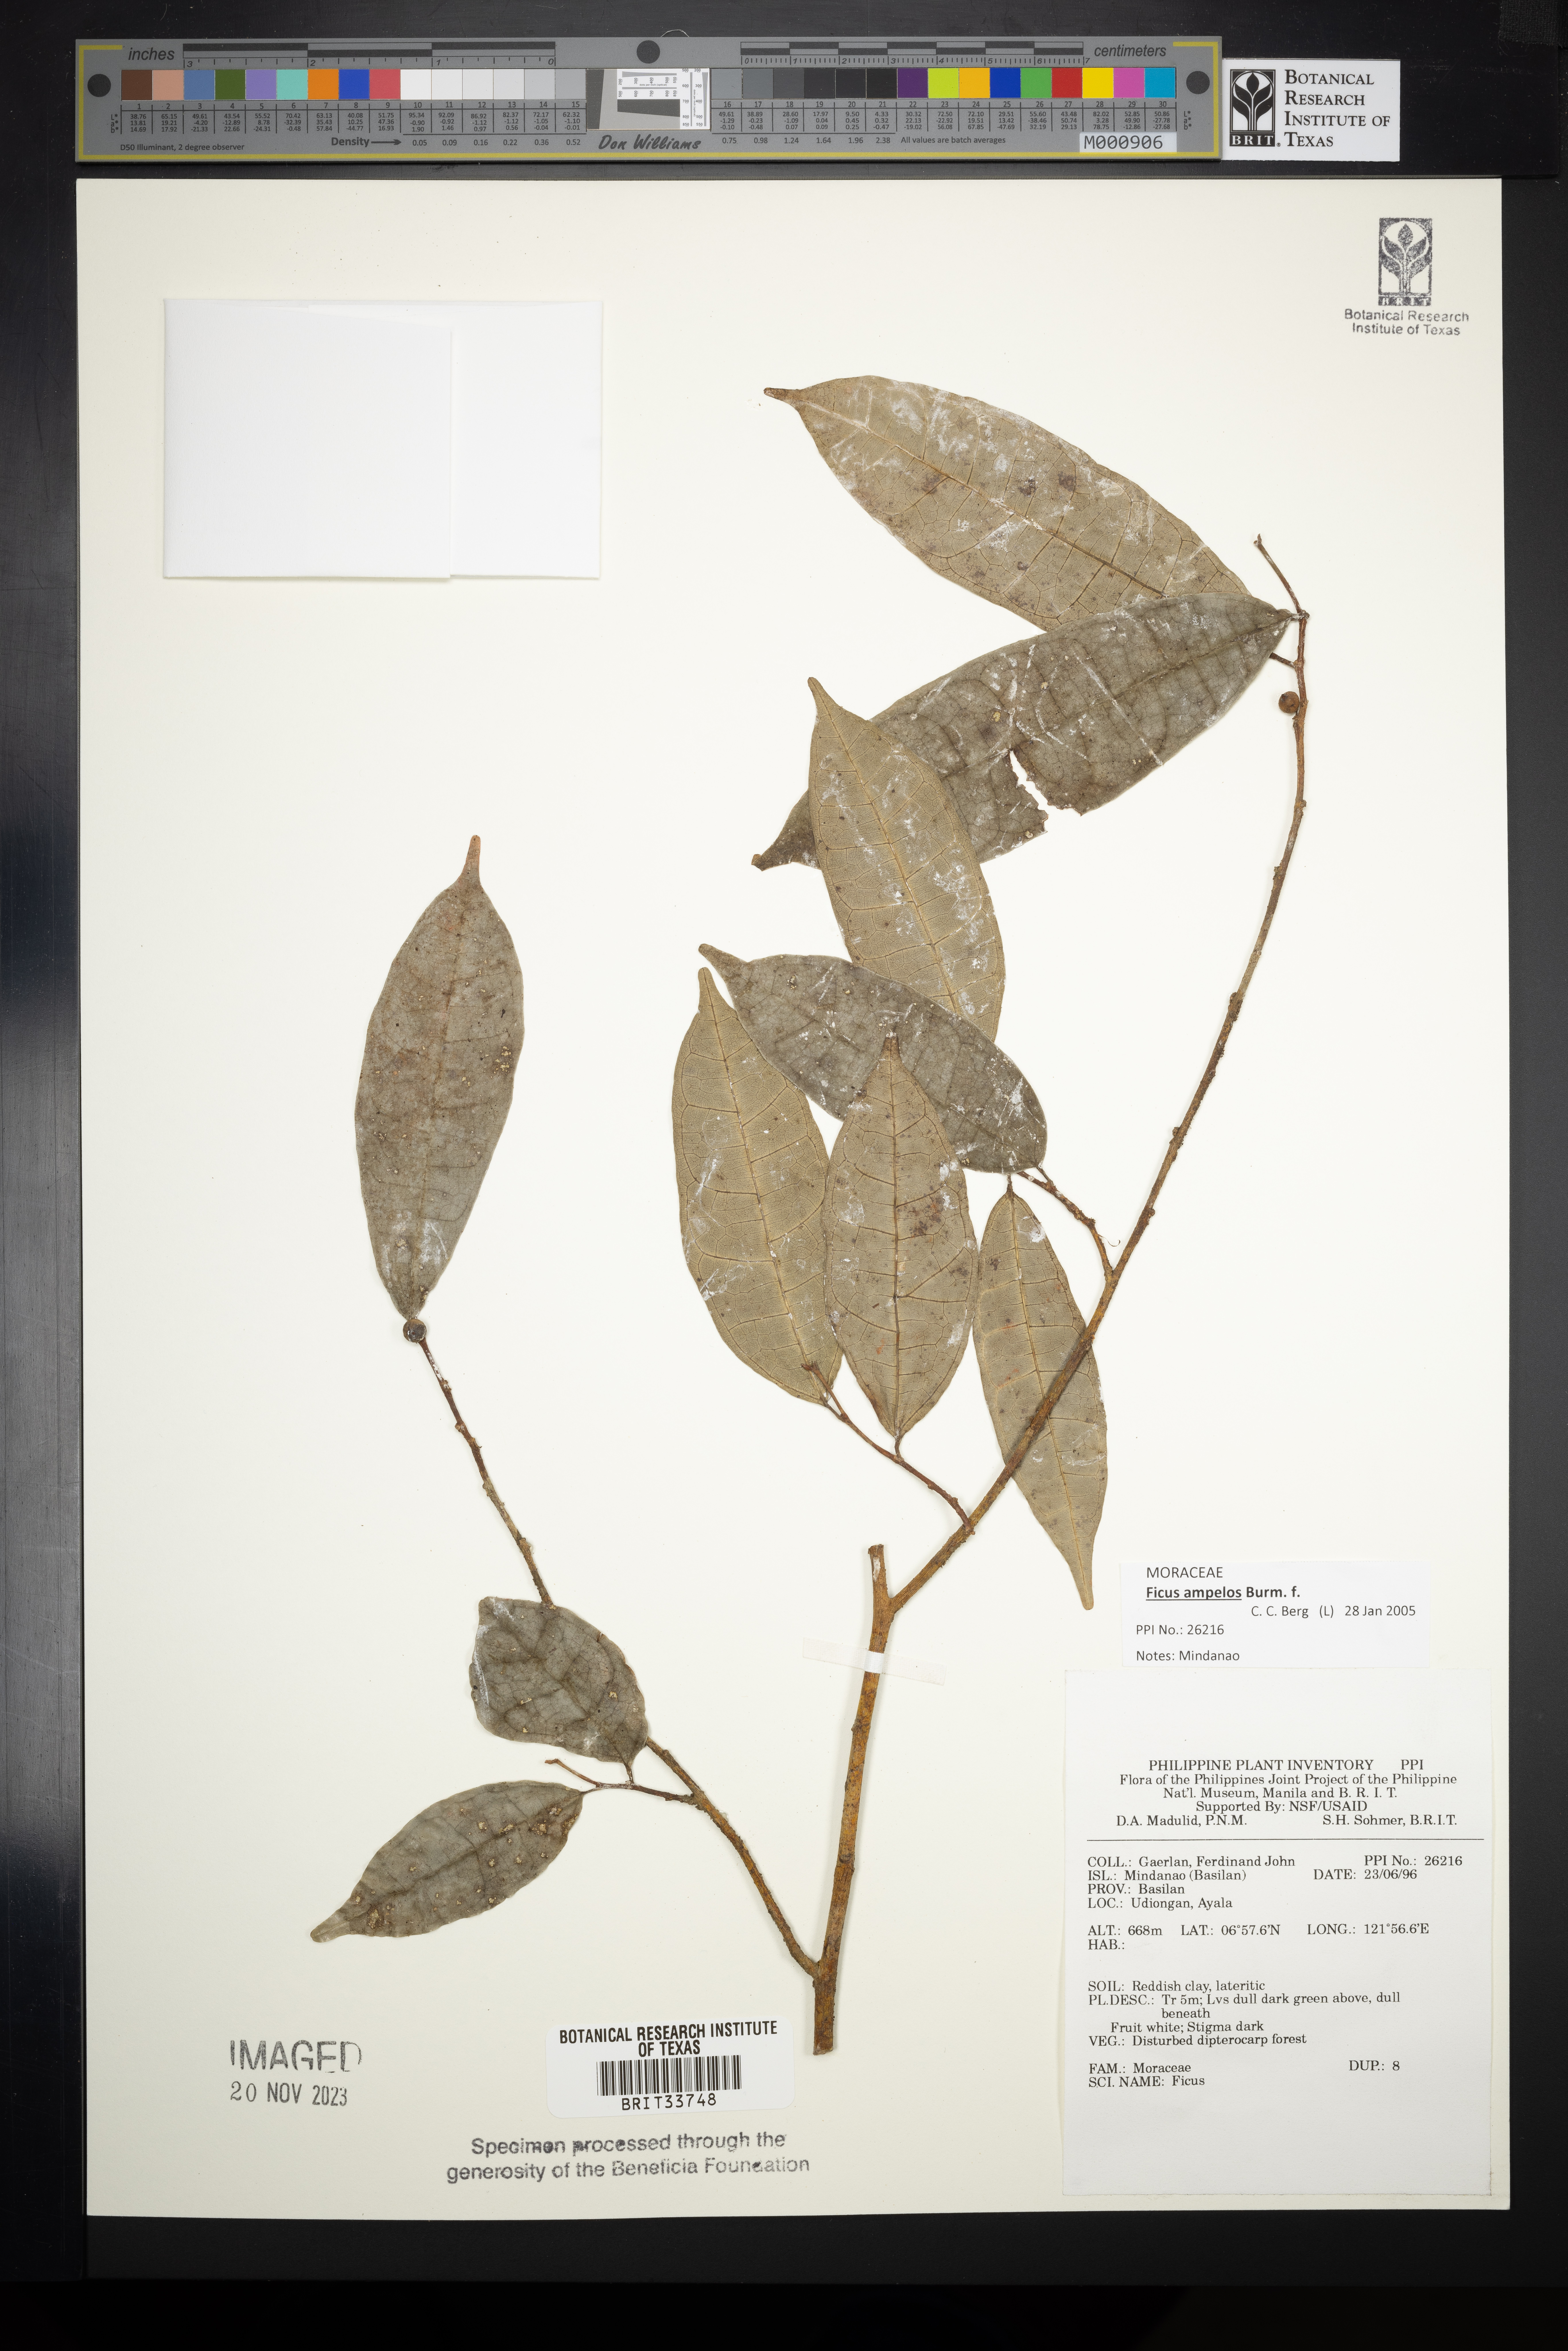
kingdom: Plantae
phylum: Tracheophyta
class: Magnoliopsida
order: Rosales
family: Moraceae
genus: Ficus
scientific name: Ficus
